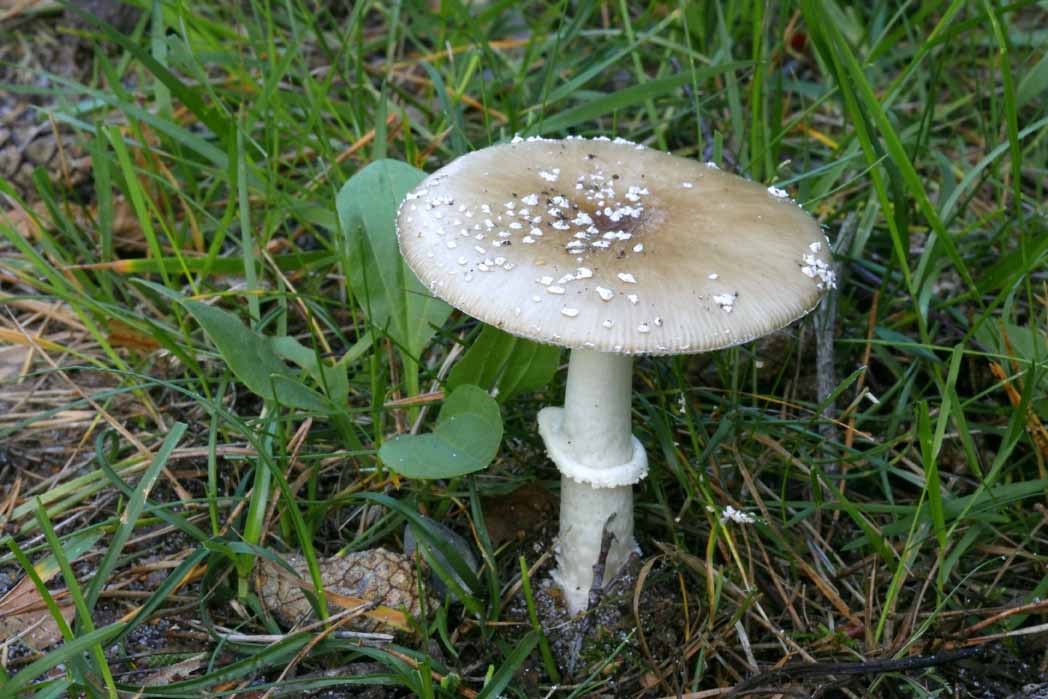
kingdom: Fungi
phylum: Basidiomycota
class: Agaricomycetes
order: Agaricales
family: Amanitaceae
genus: Amanita
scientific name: Amanita pantherina
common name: panter-fluesvamp
